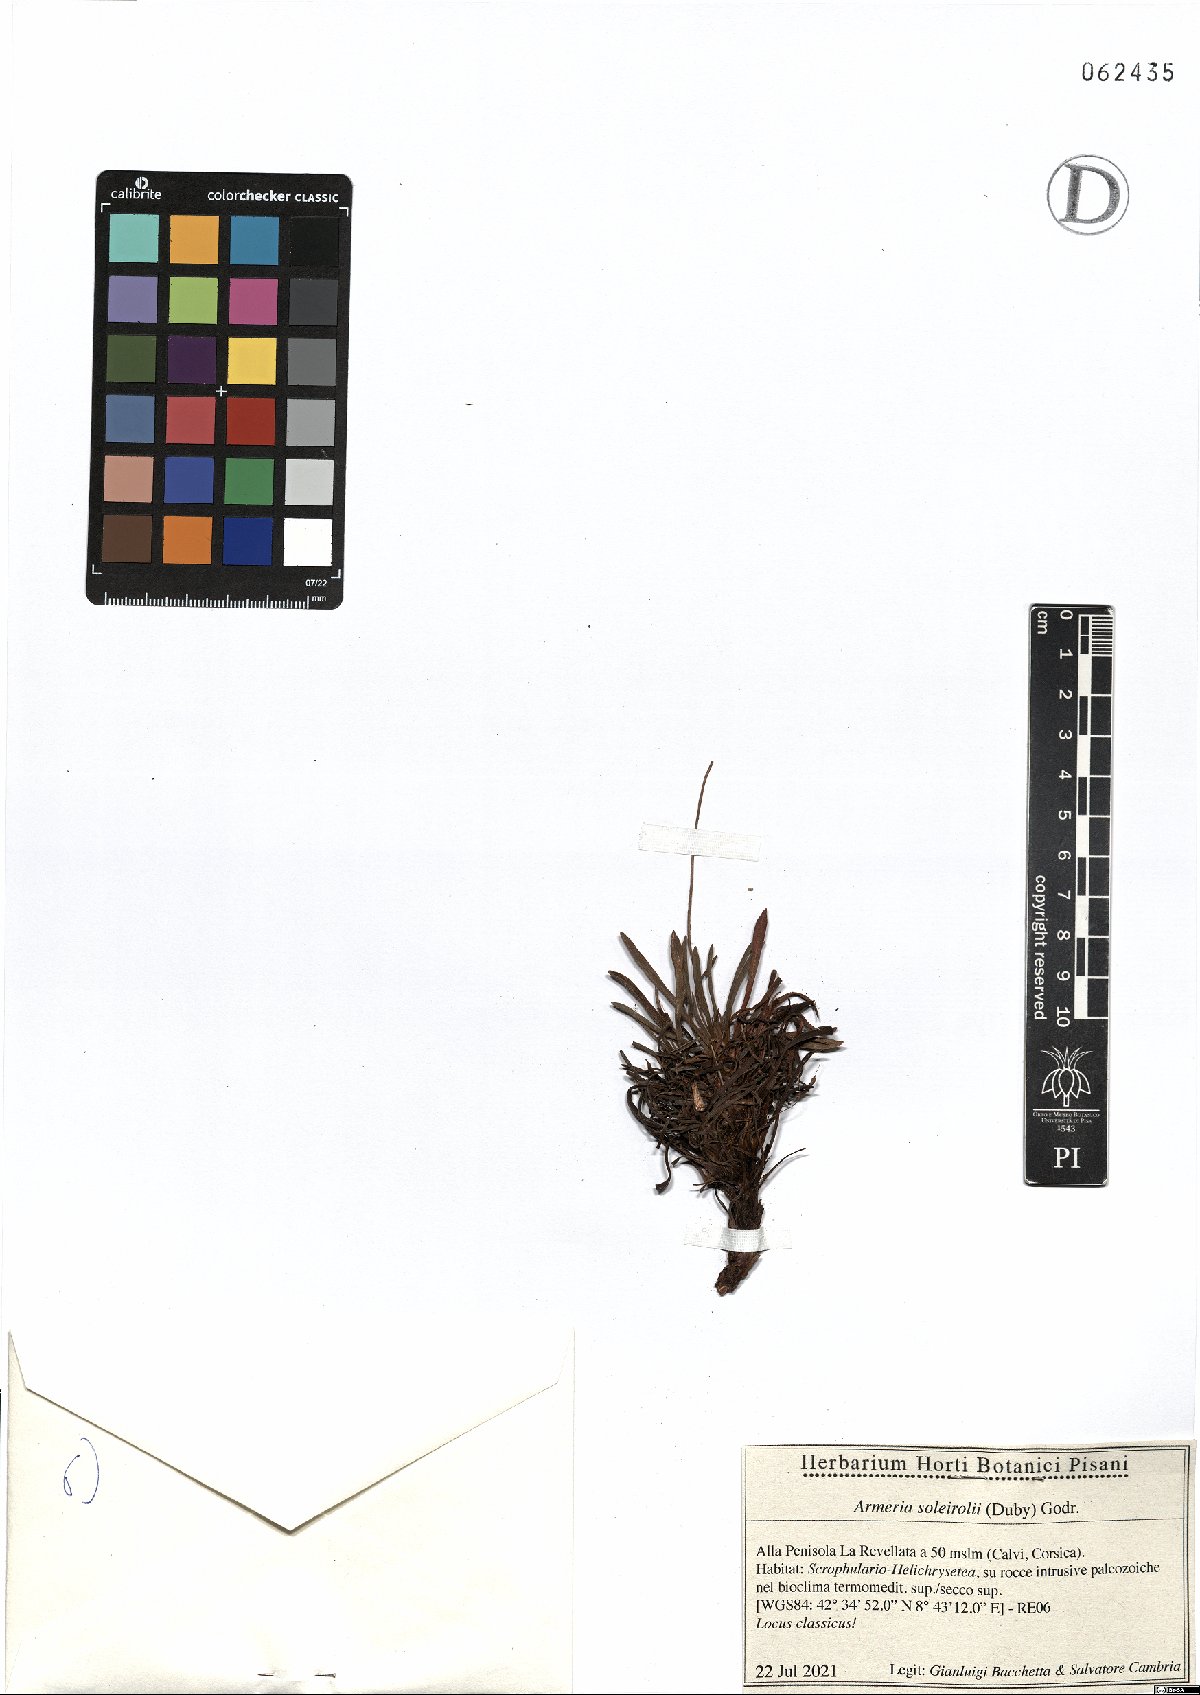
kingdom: Plantae
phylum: Tracheophyta
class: Magnoliopsida
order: Caryophyllales
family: Plumbaginaceae
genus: Armeria
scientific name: Armeria soleirolii
